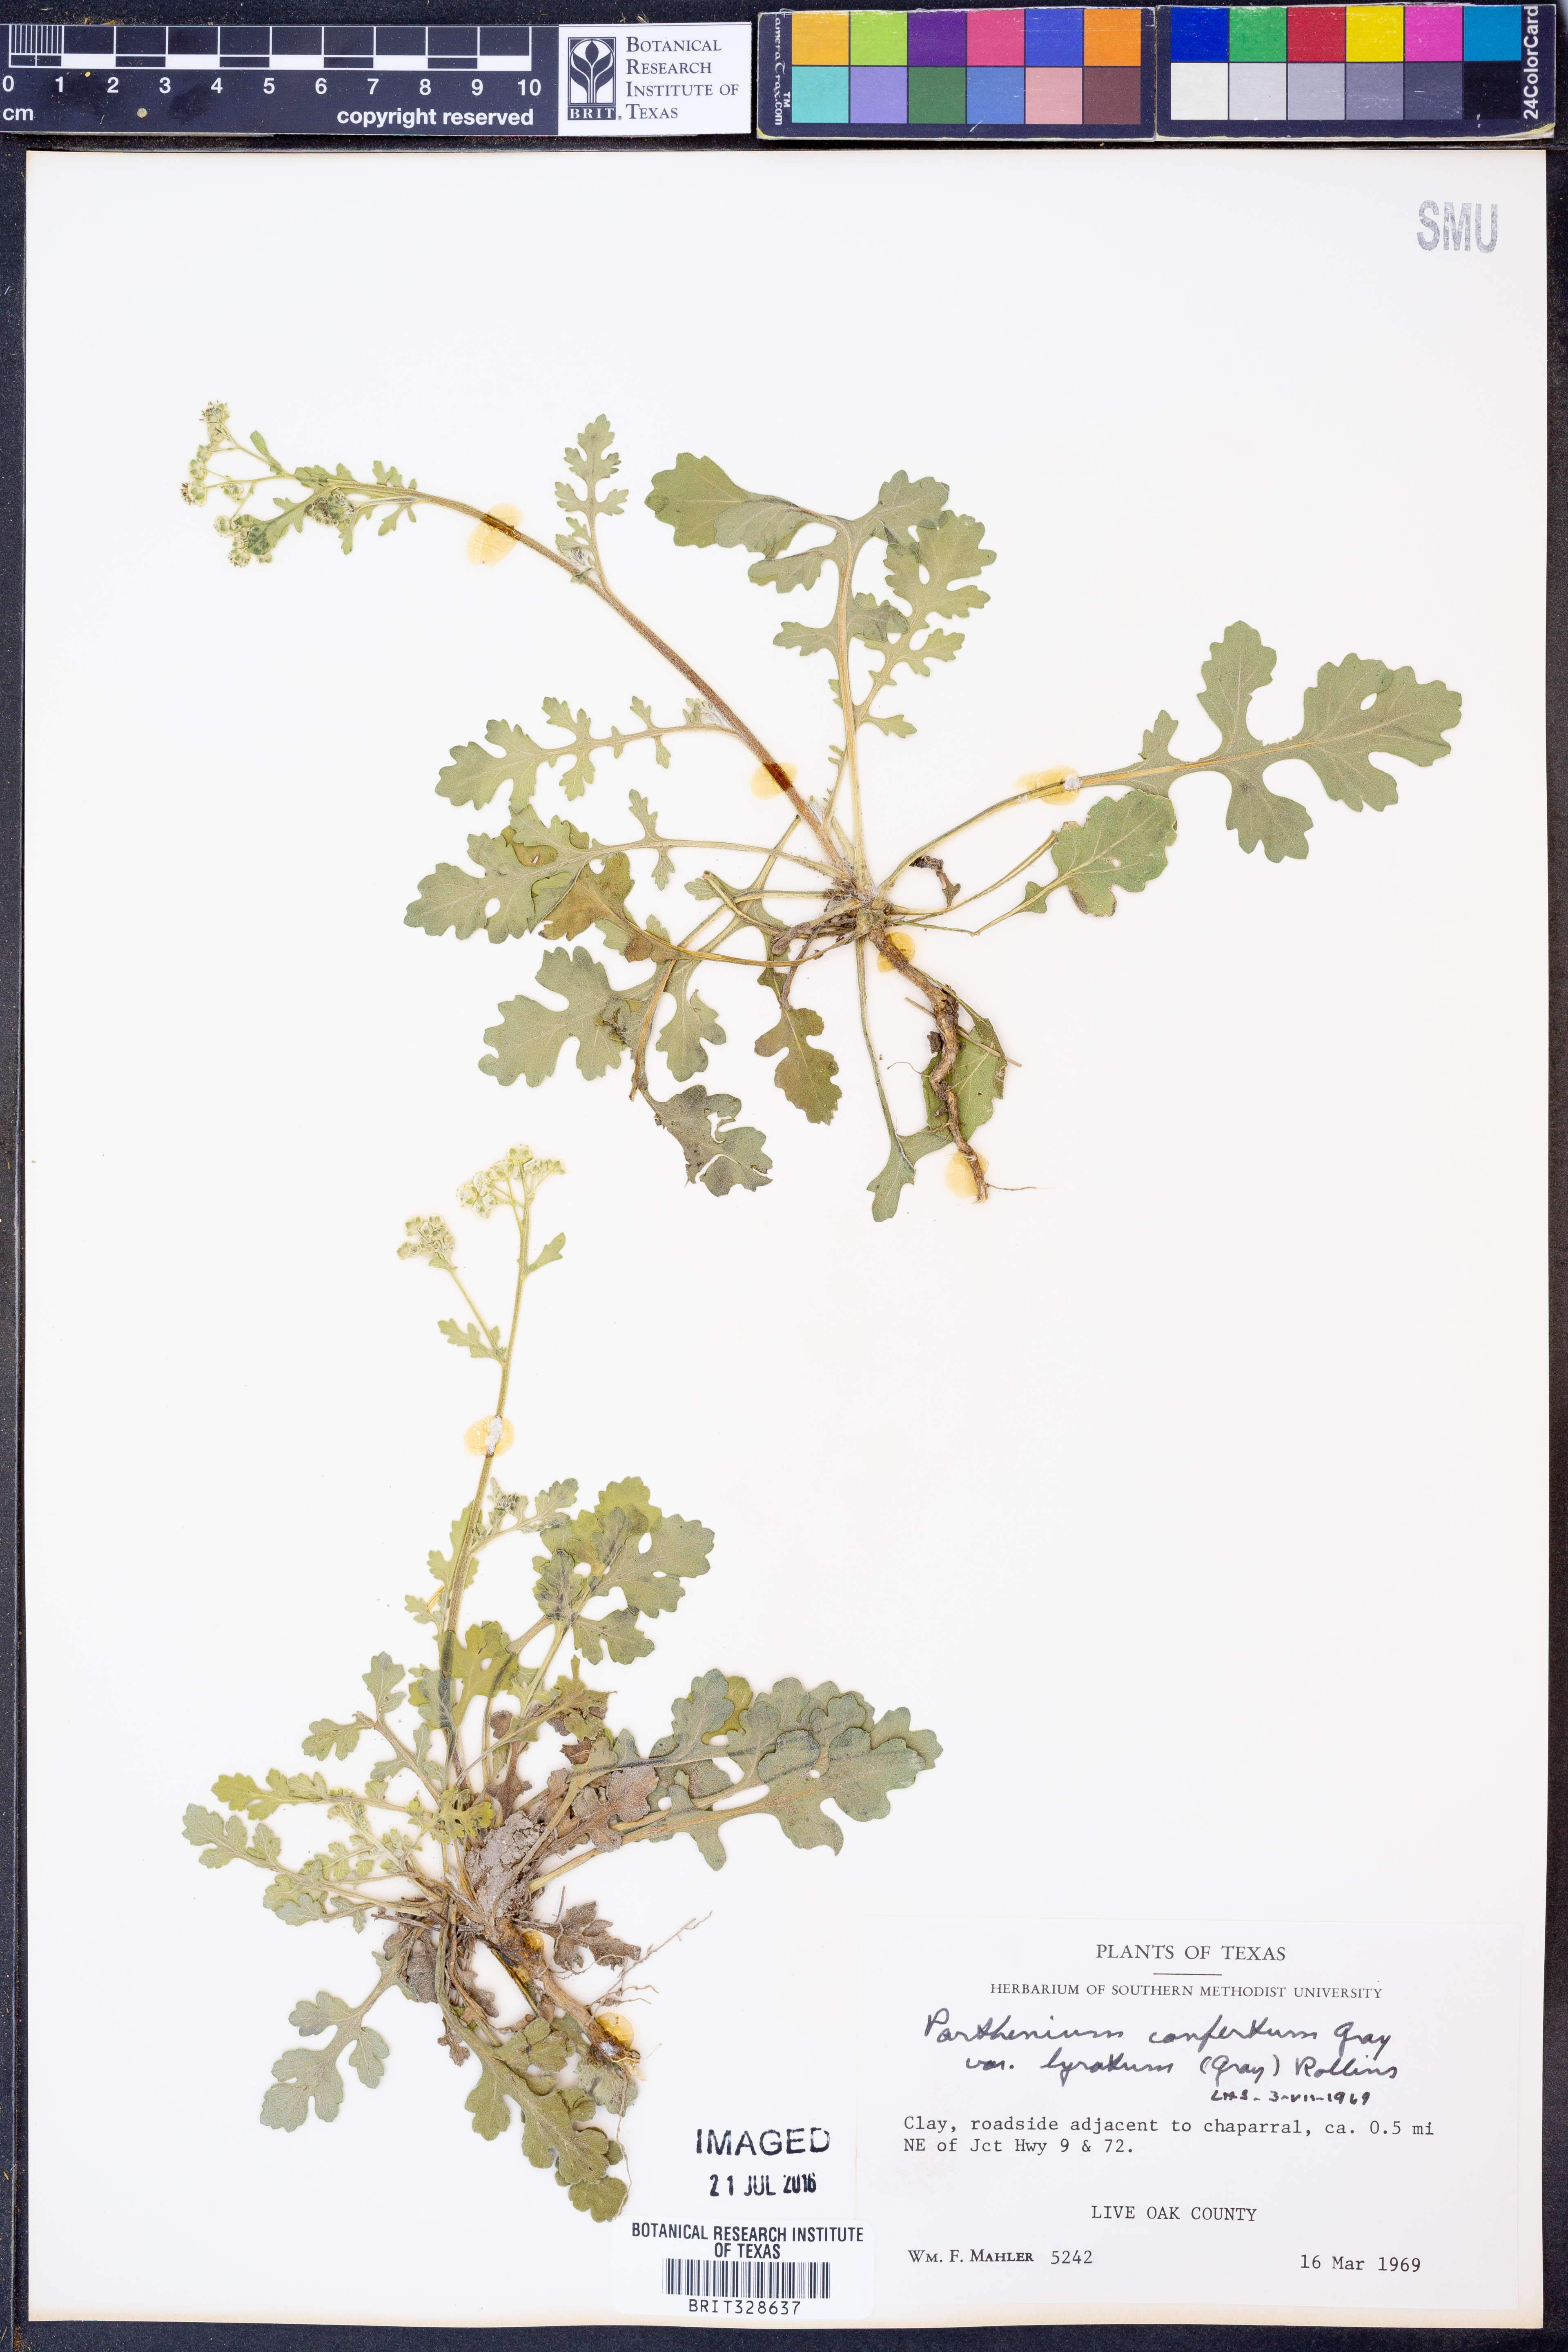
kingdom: Plantae
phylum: Tracheophyta
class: Magnoliopsida
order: Asterales
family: Asteraceae
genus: Parthenium
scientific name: Parthenium confertum
